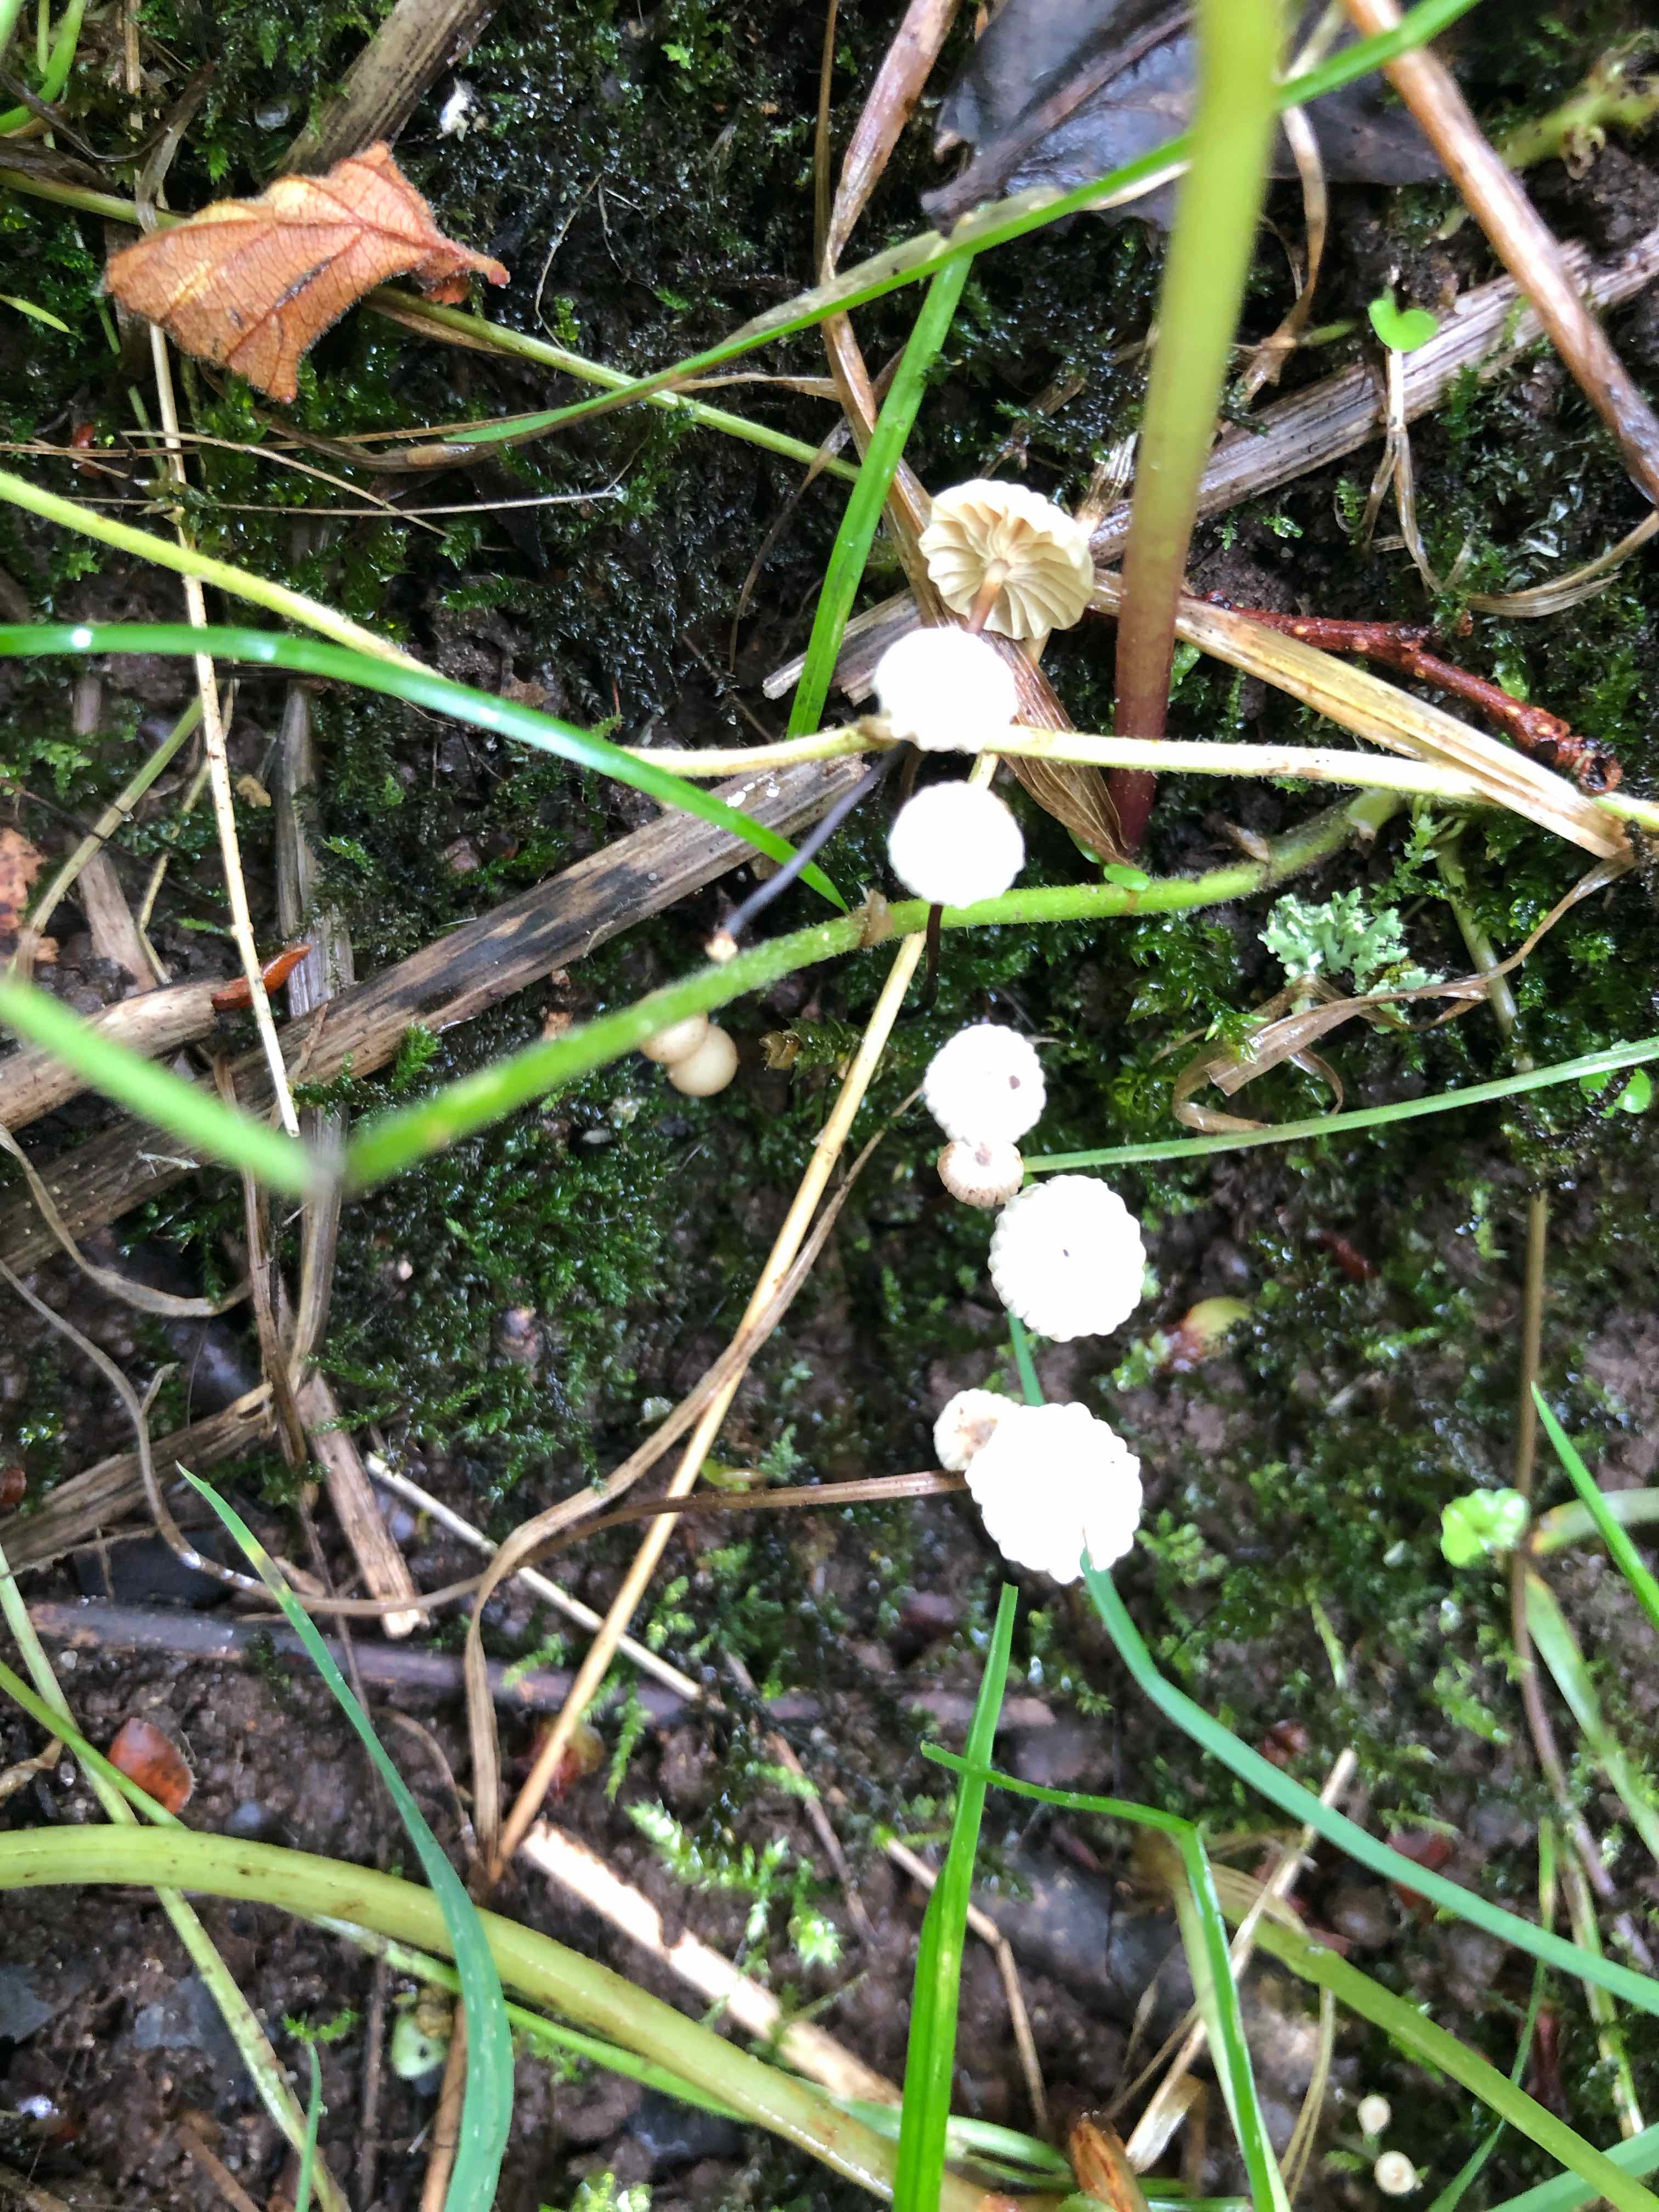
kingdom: Fungi
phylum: Basidiomycota
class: Agaricomycetes
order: Agaricales
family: Marasmiaceae
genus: Marasmius
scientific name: Marasmius rotula
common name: hjul-bruskhat
